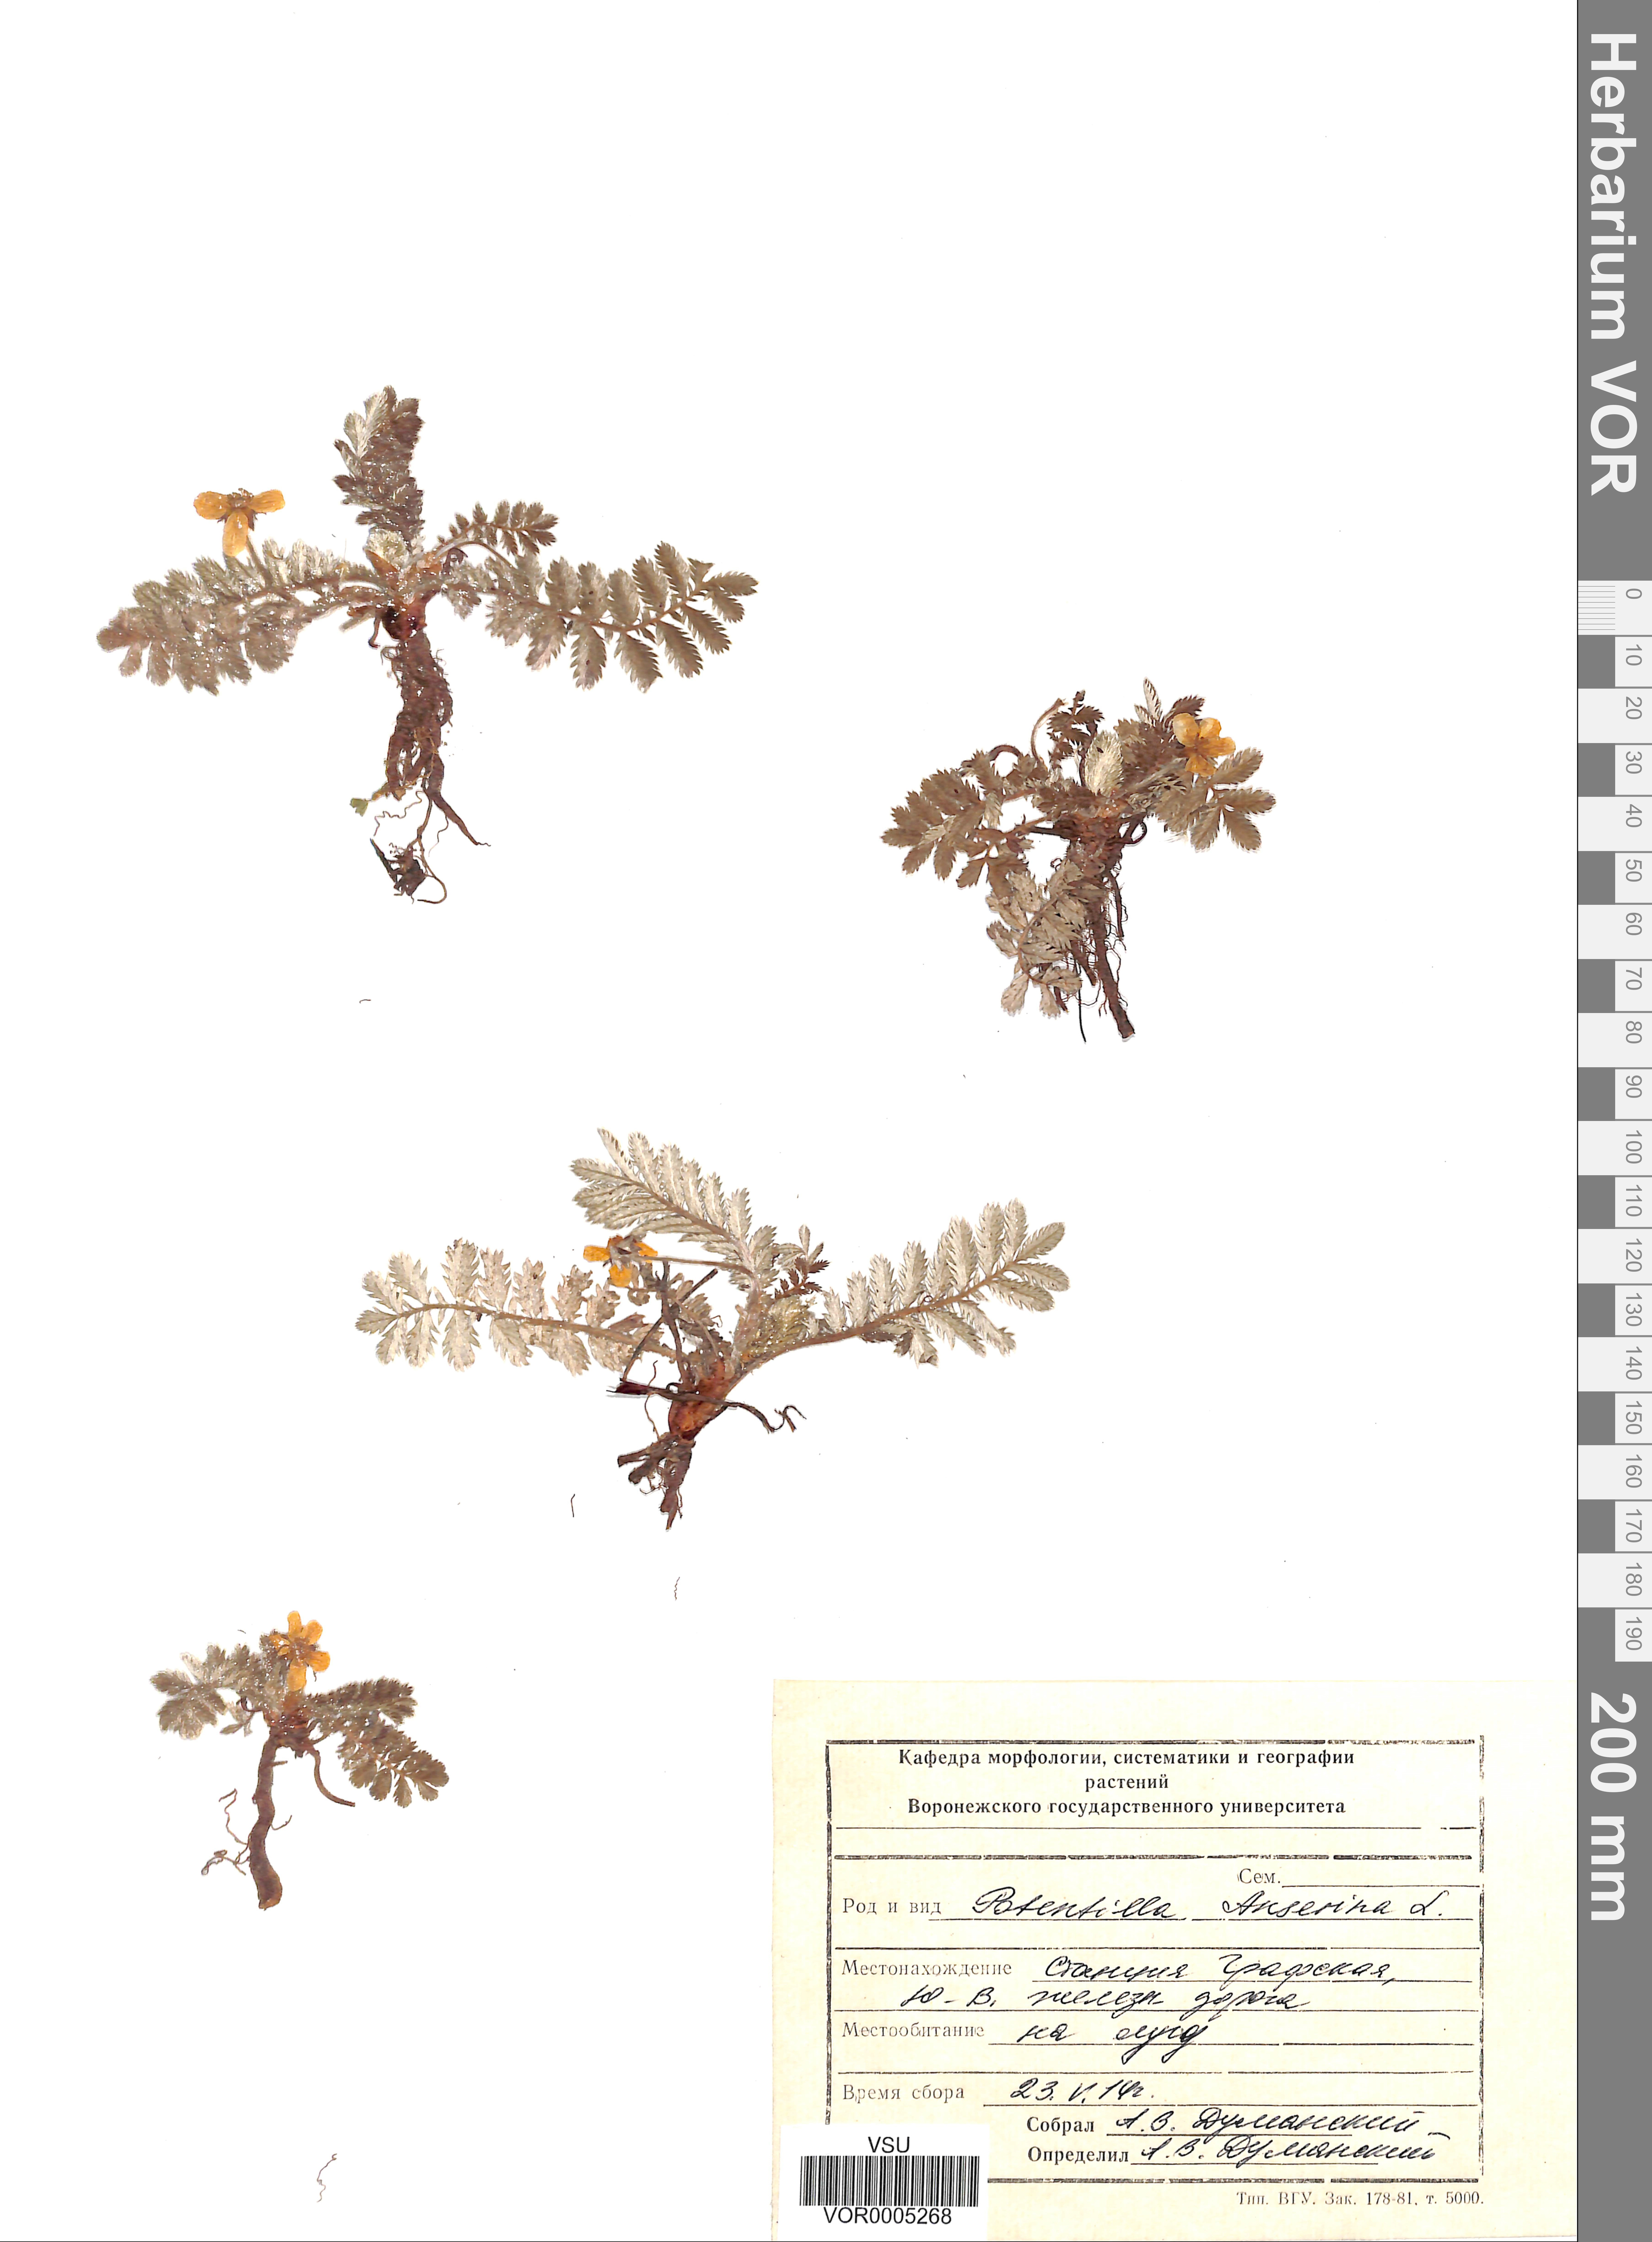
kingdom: Plantae
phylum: Tracheophyta
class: Magnoliopsida
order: Rosales
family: Rosaceae
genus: Argentina
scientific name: Argentina anserina
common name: Common silverweed
